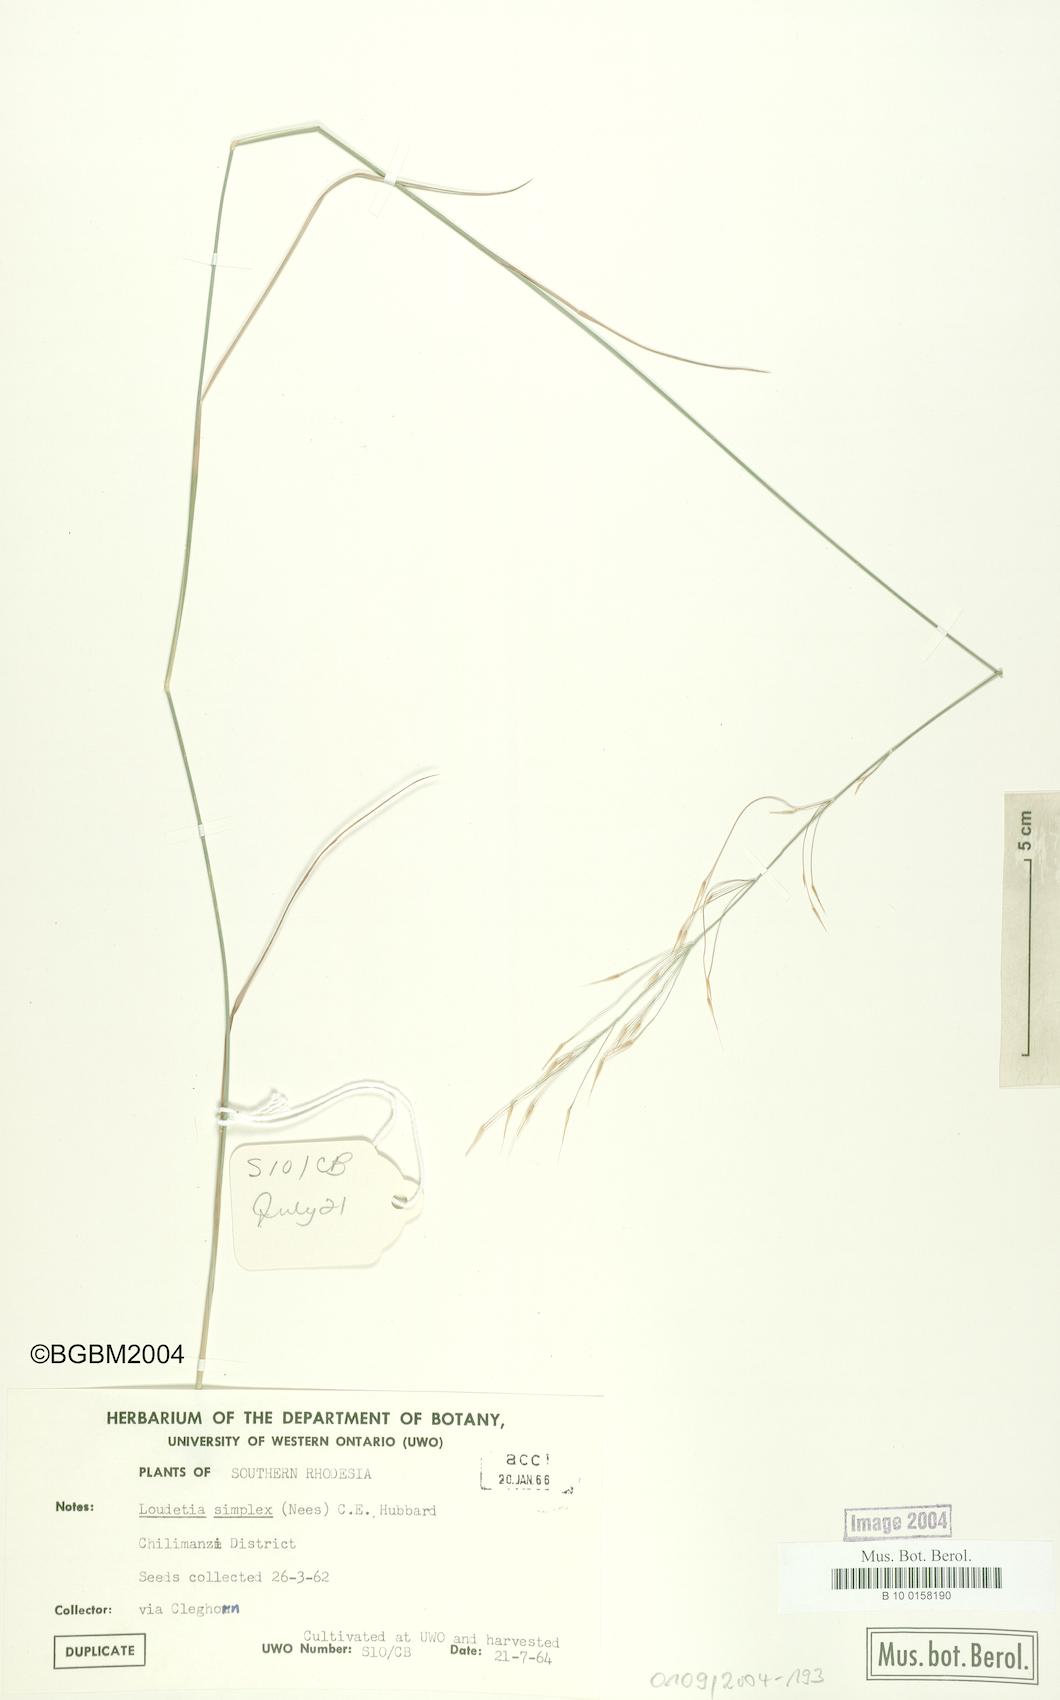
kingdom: Plantae
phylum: Tracheophyta
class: Liliopsida
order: Poales
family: Poaceae
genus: Loudetia
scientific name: Loudetia simplex
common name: Common russet grass
